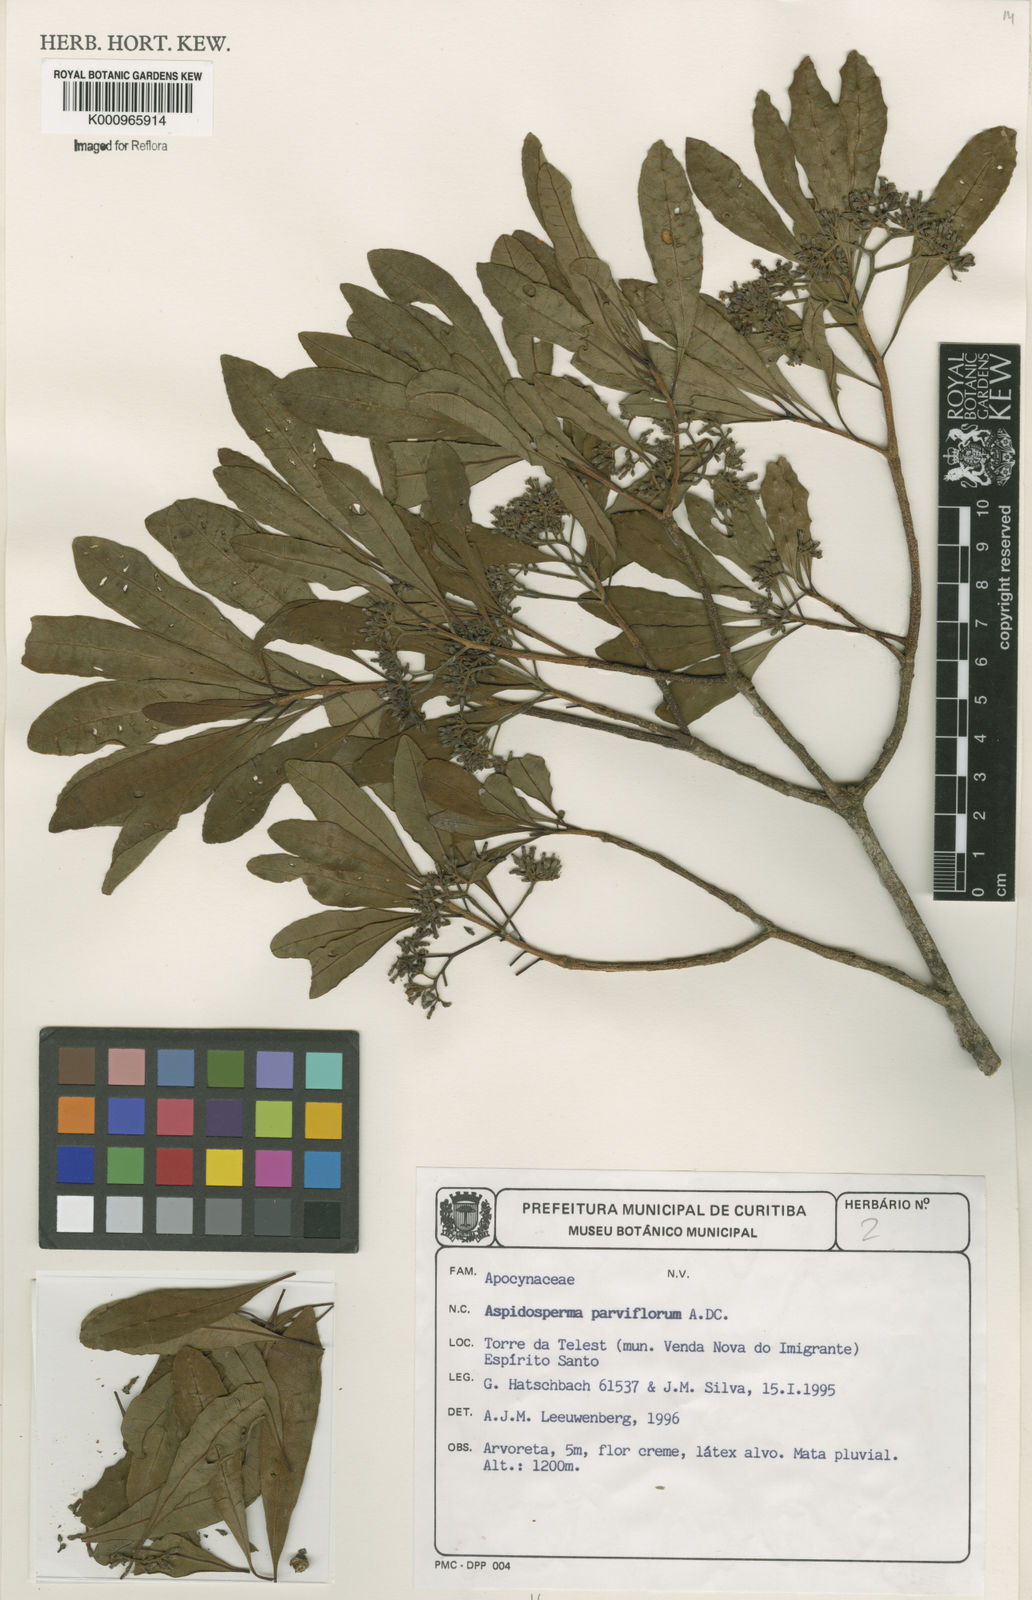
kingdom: Plantae
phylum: Tracheophyta
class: Magnoliopsida
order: Gentianales
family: Apocynaceae
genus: Aspidosperma
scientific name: Aspidosperma
